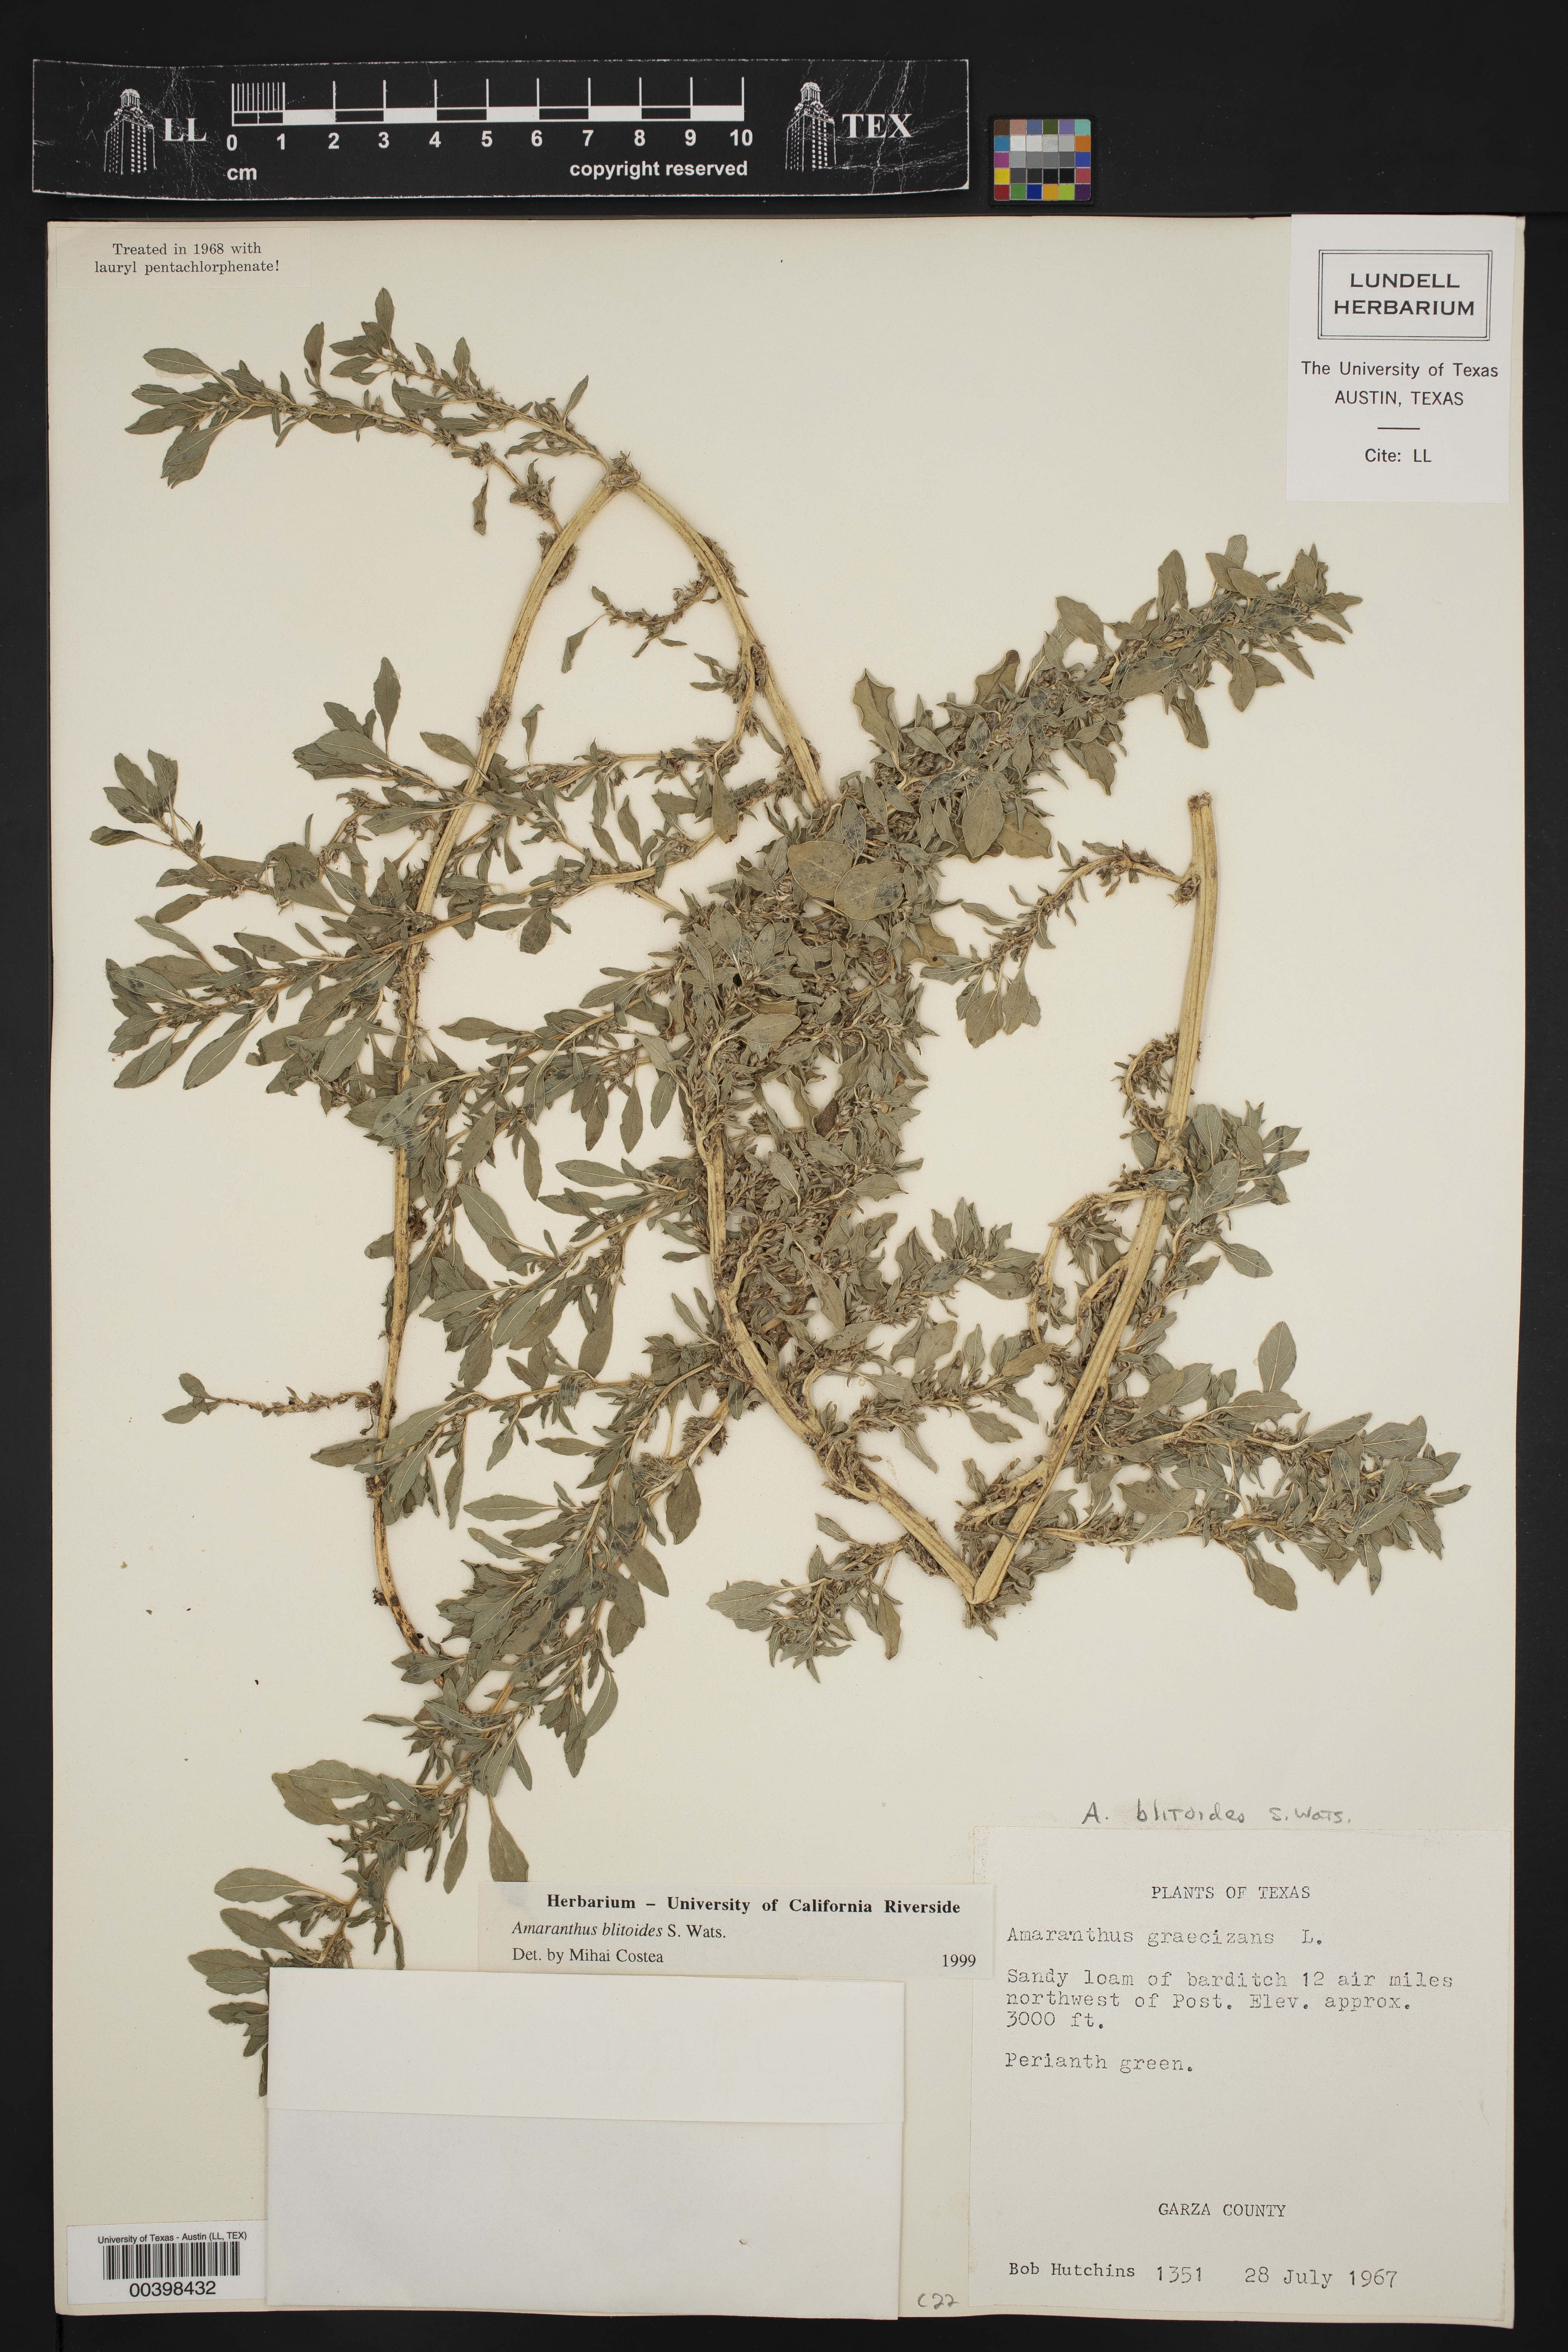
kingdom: Plantae
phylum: Tracheophyta
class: Magnoliopsida
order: Caryophyllales
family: Amaranthaceae
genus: Amaranthus
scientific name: Amaranthus blitoides
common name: Prostrate pigweed
